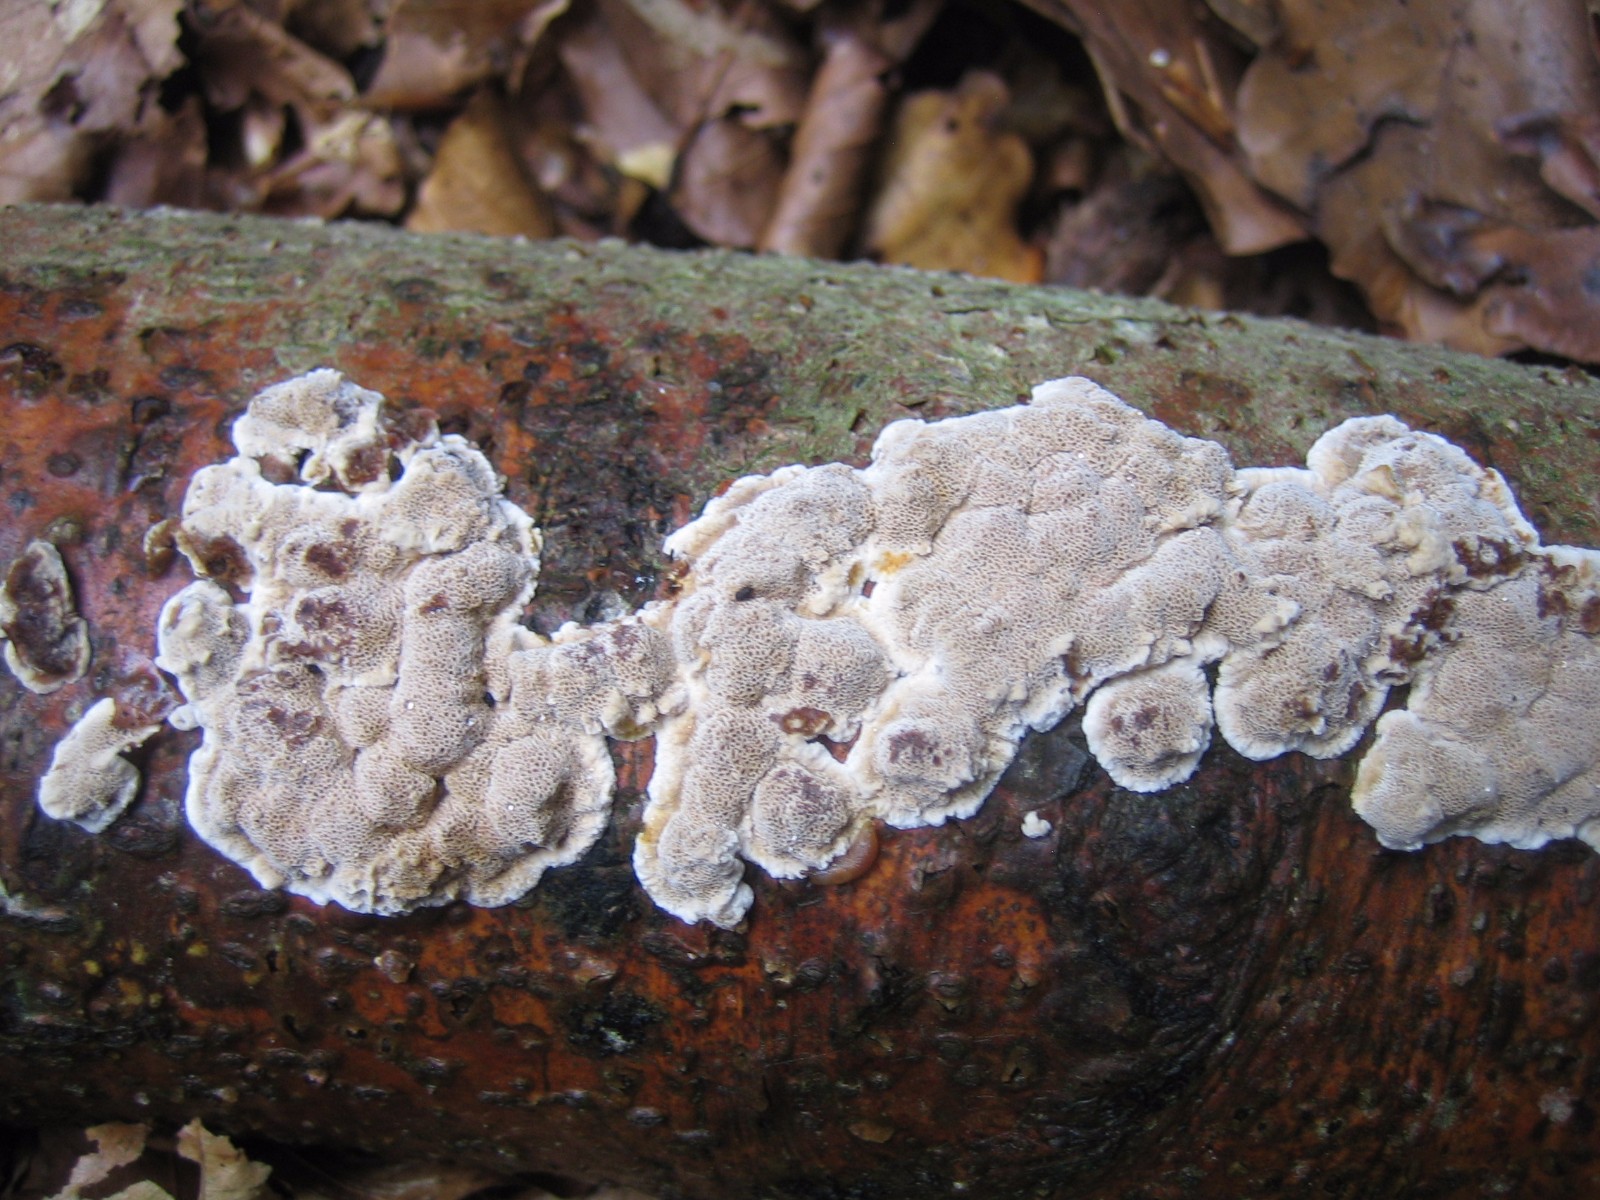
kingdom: Fungi
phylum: Basidiomycota
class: Agaricomycetes
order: Polyporales
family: Phanerochaetaceae
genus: Bjerkandera
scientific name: Bjerkandera adusta
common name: sveden sodporesvamp
